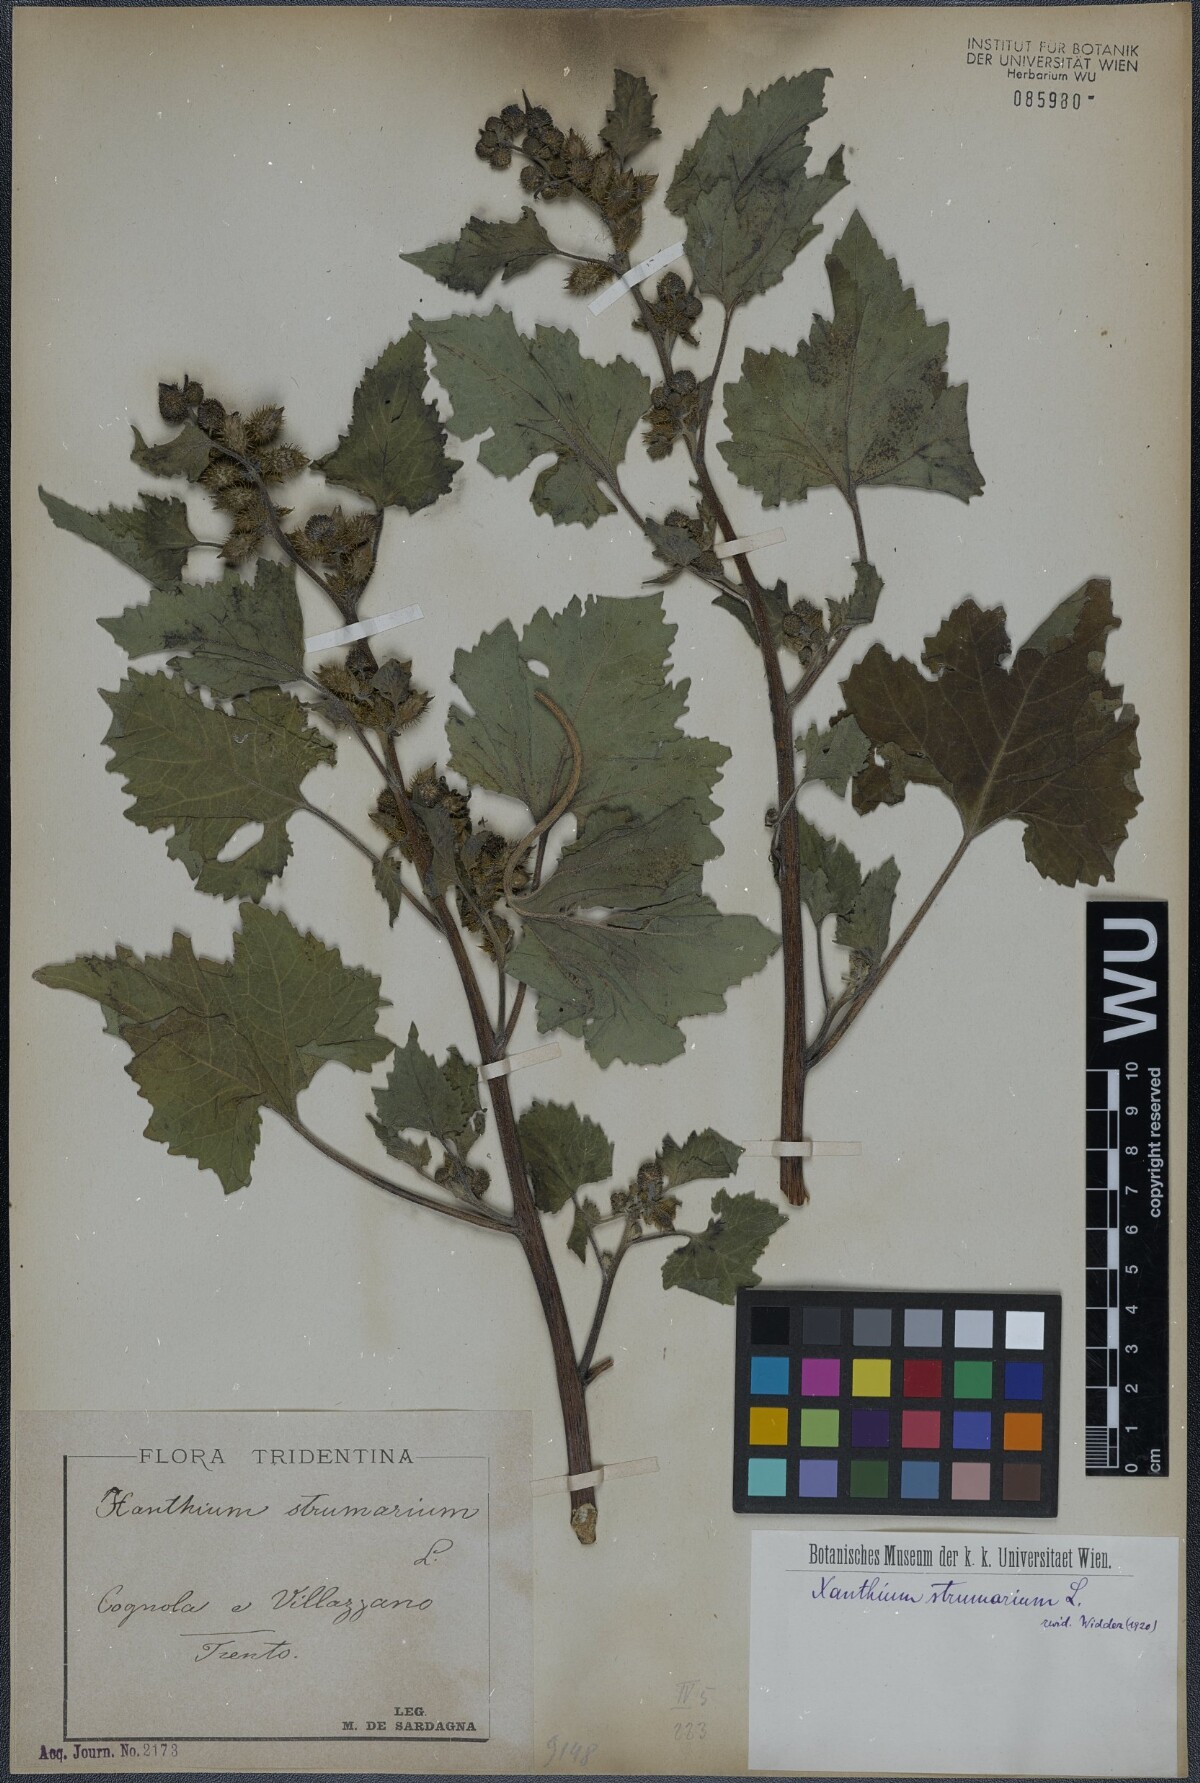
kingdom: Plantae
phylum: Tracheophyta
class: Magnoliopsida
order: Asterales
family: Asteraceae
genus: Xanthium
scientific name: Xanthium strumarium
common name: Rough cocklebur
